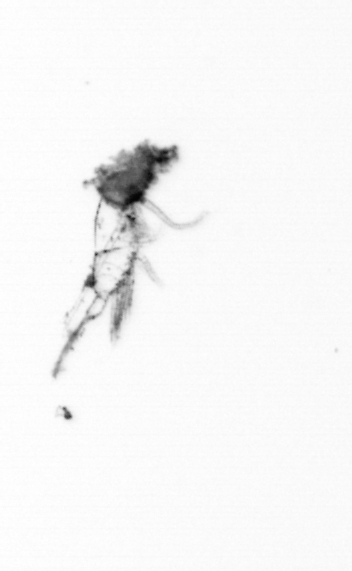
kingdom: Animalia
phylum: Arthropoda
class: Maxillopoda
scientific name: Maxillopoda
